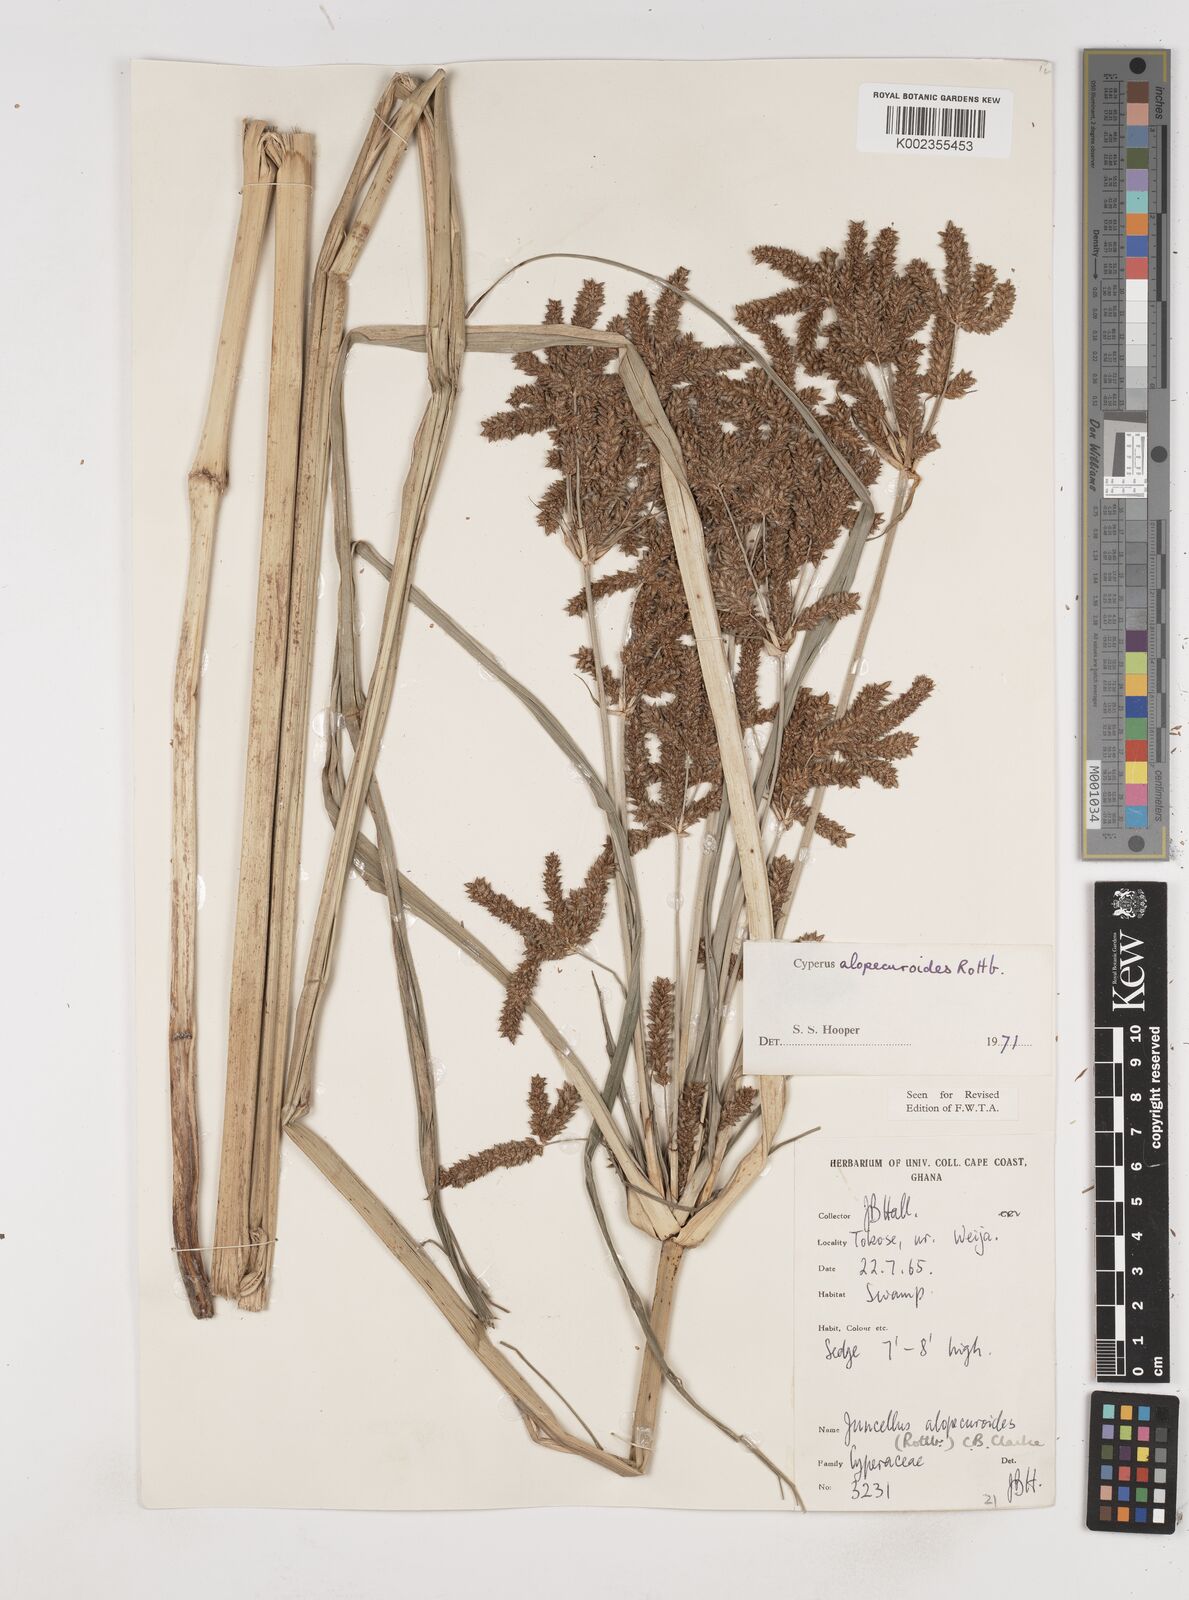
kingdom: Plantae
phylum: Tracheophyta
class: Liliopsida
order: Poales
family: Cyperaceae
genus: Cyperus
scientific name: Cyperus alopecuroides
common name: Foxtail flatsedge
